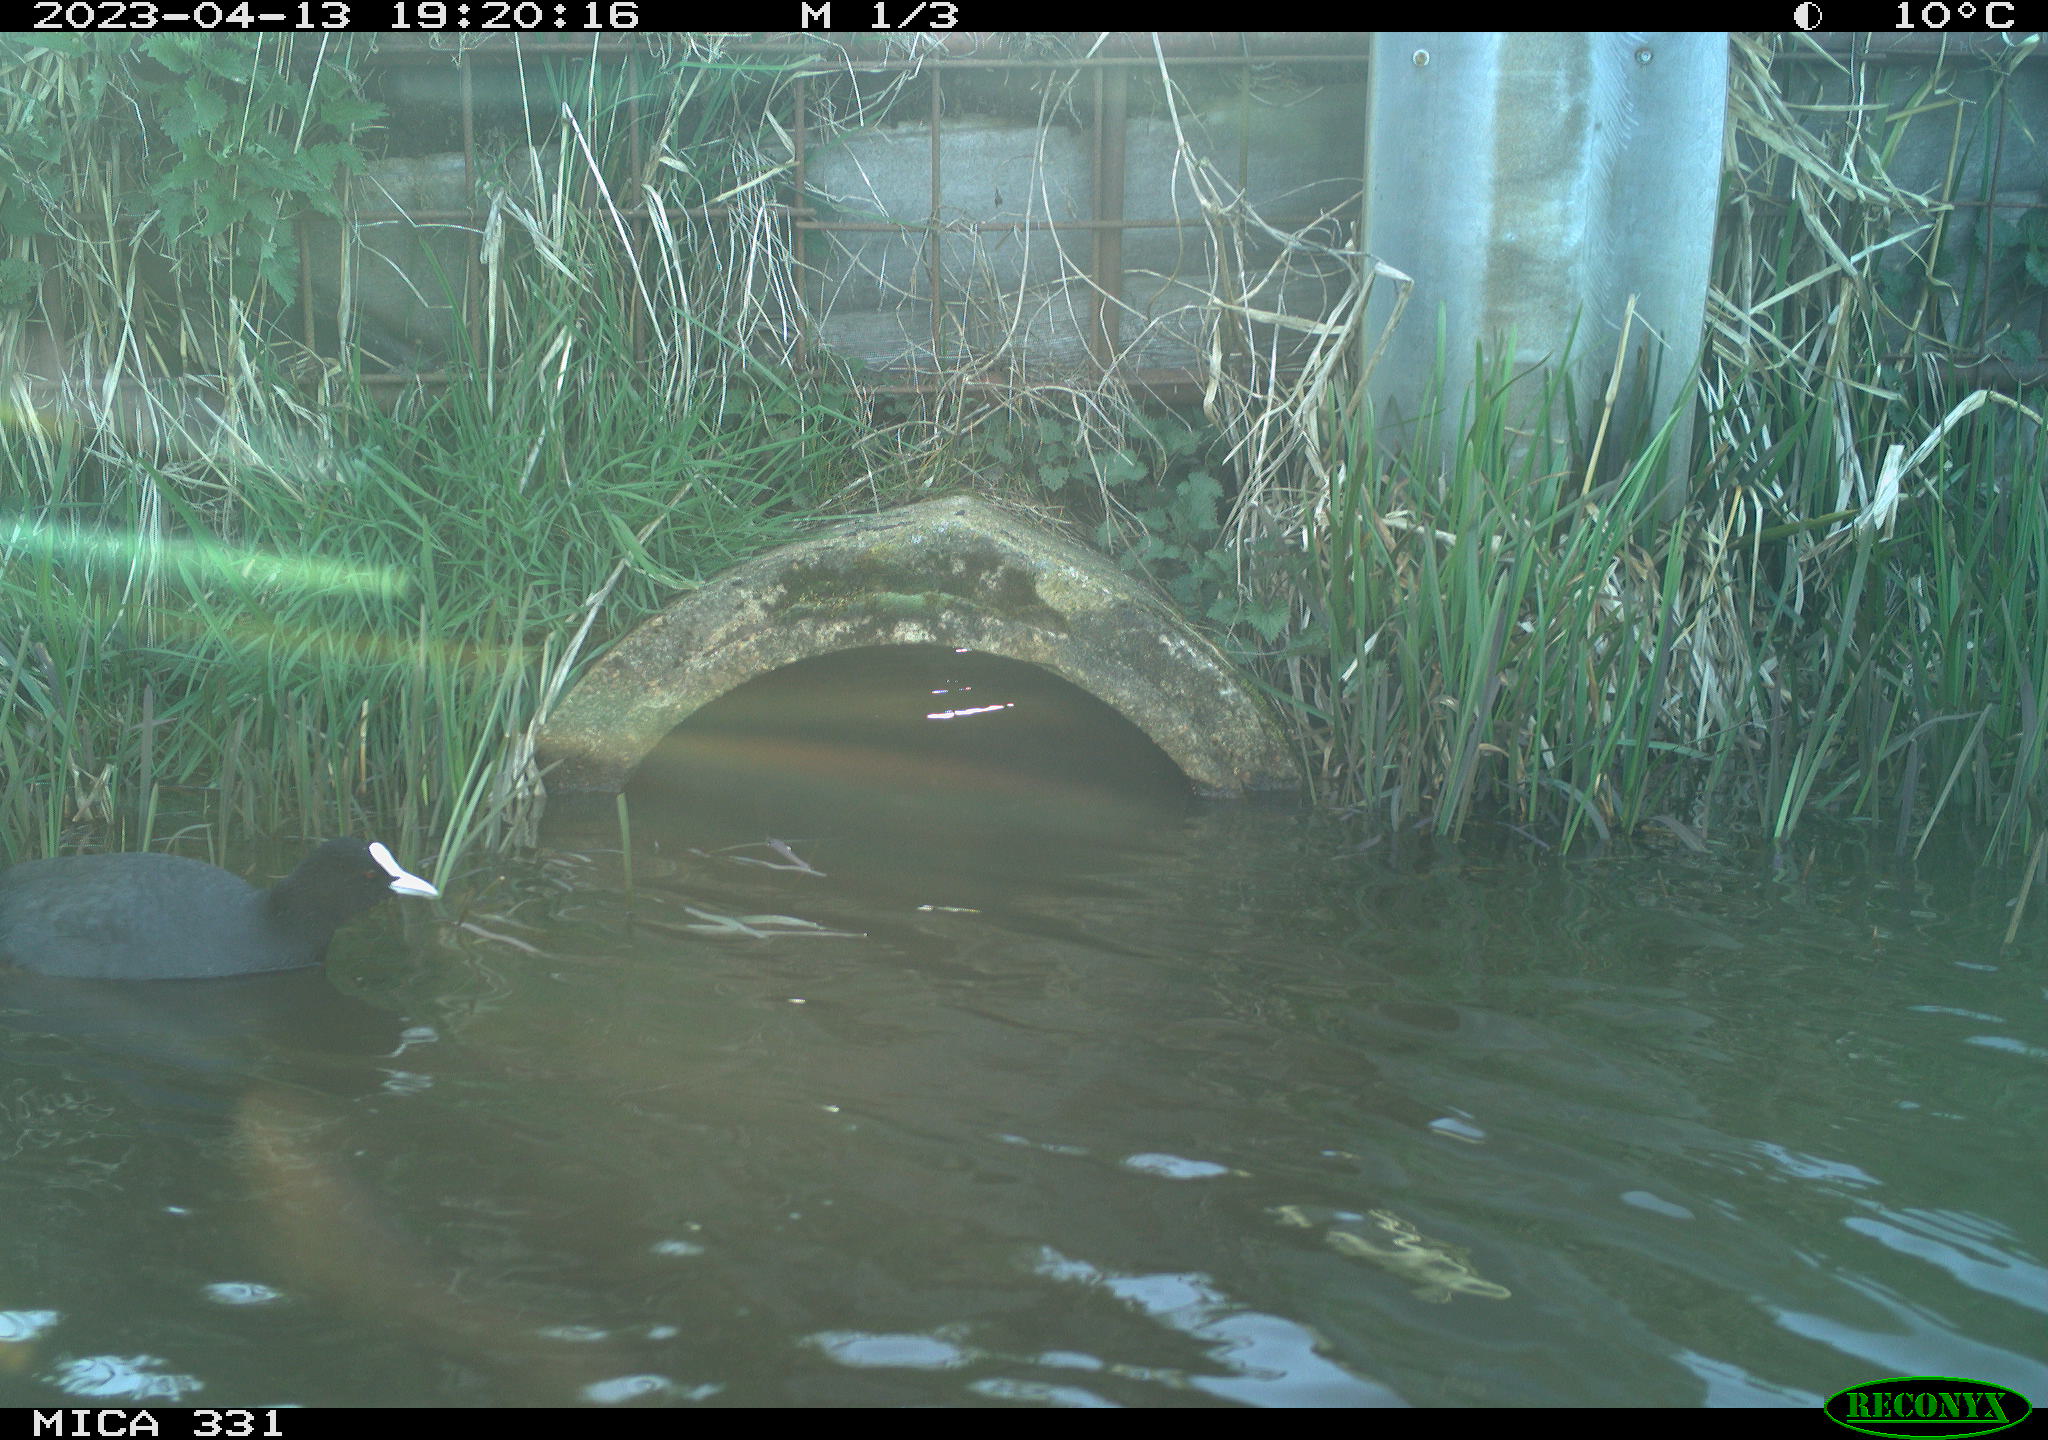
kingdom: Animalia
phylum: Chordata
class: Aves
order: Gruiformes
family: Rallidae
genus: Fulica
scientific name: Fulica atra
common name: Eurasian coot
